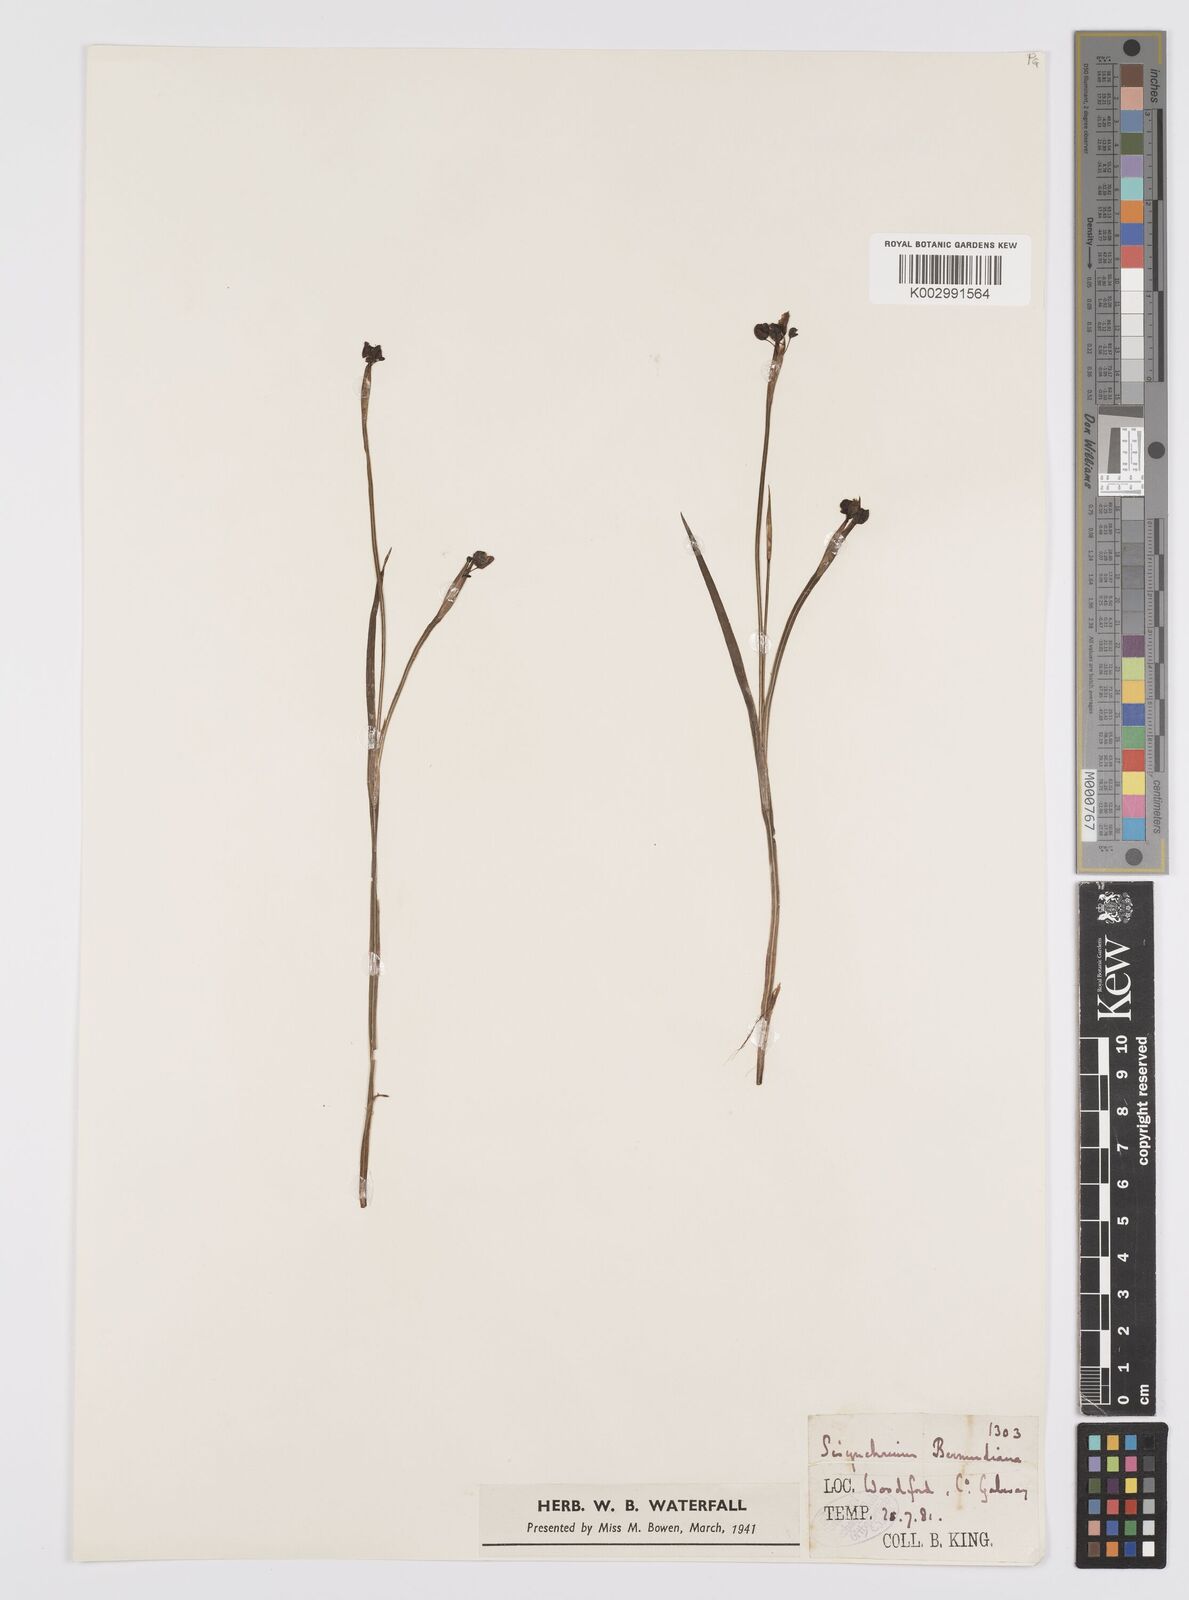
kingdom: Plantae
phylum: Tracheophyta
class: Liliopsida
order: Asparagales
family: Iridaceae
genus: Sisyrinchium
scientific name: Sisyrinchium angustifolium
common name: Narrow-leaf blue-eyed-grass
